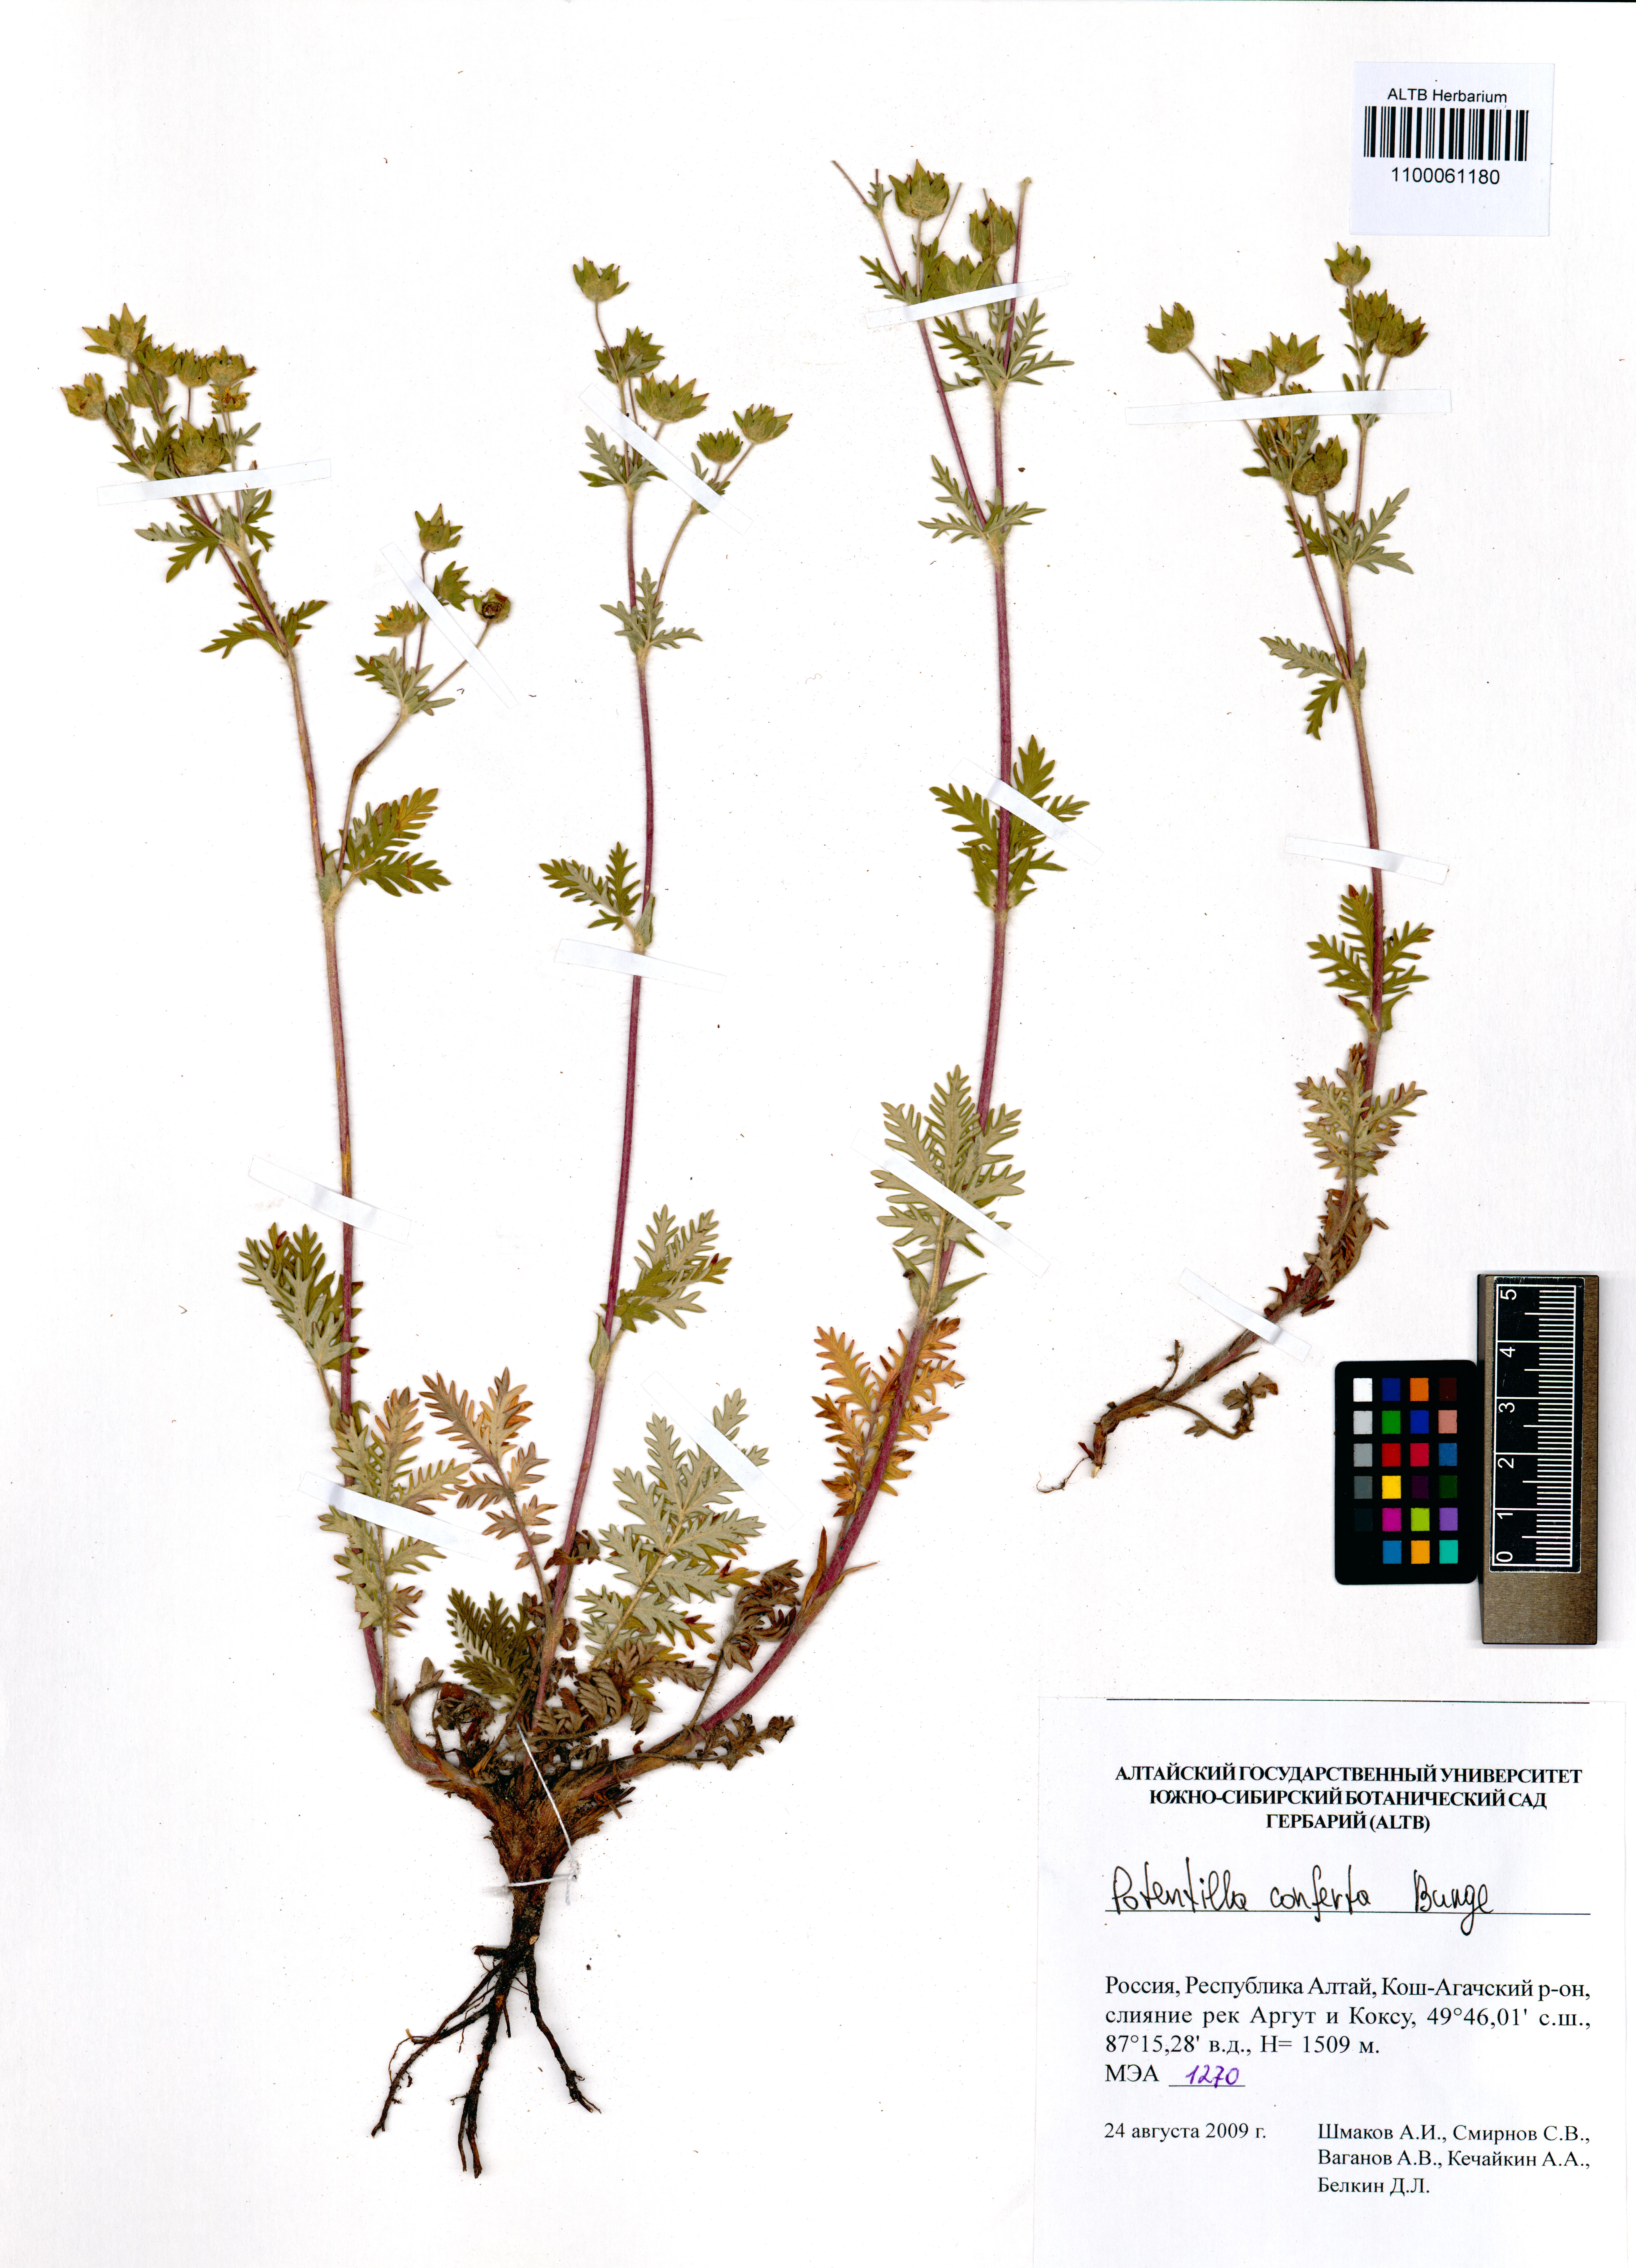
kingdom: Plantae
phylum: Tracheophyta
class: Magnoliopsida
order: Rosales
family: Rosaceae
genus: Potentilla
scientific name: Potentilla conferta
